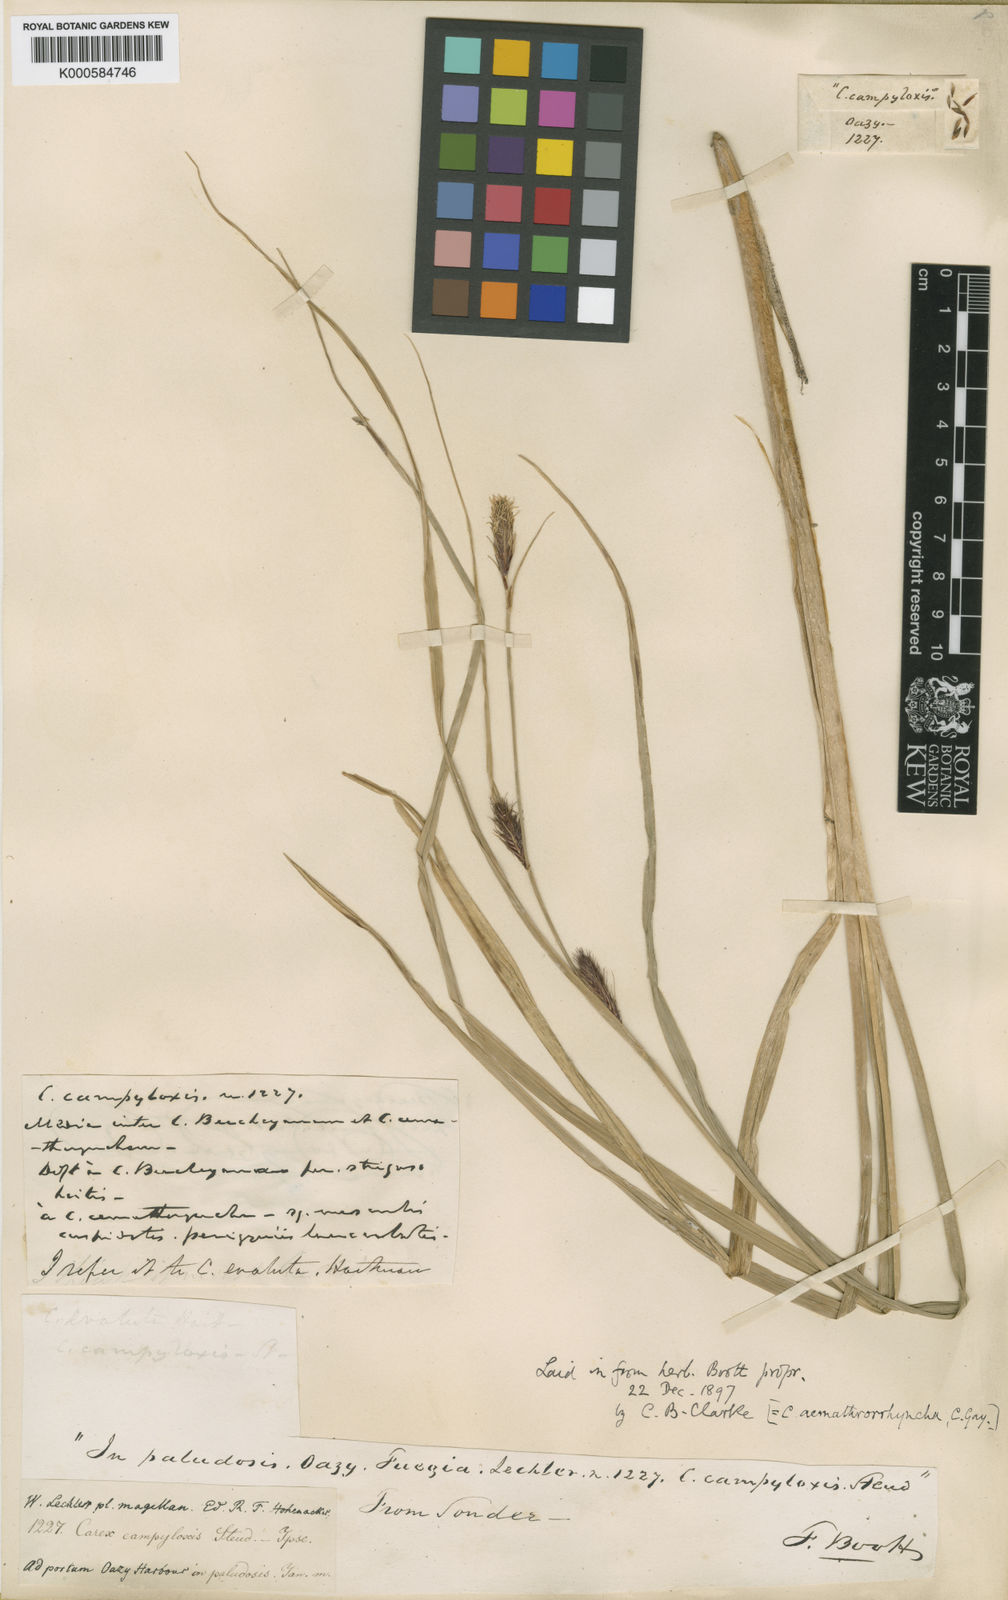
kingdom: Plantae
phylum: Tracheophyta
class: Liliopsida
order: Poales
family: Cyperaceae
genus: Carex
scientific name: Carex
